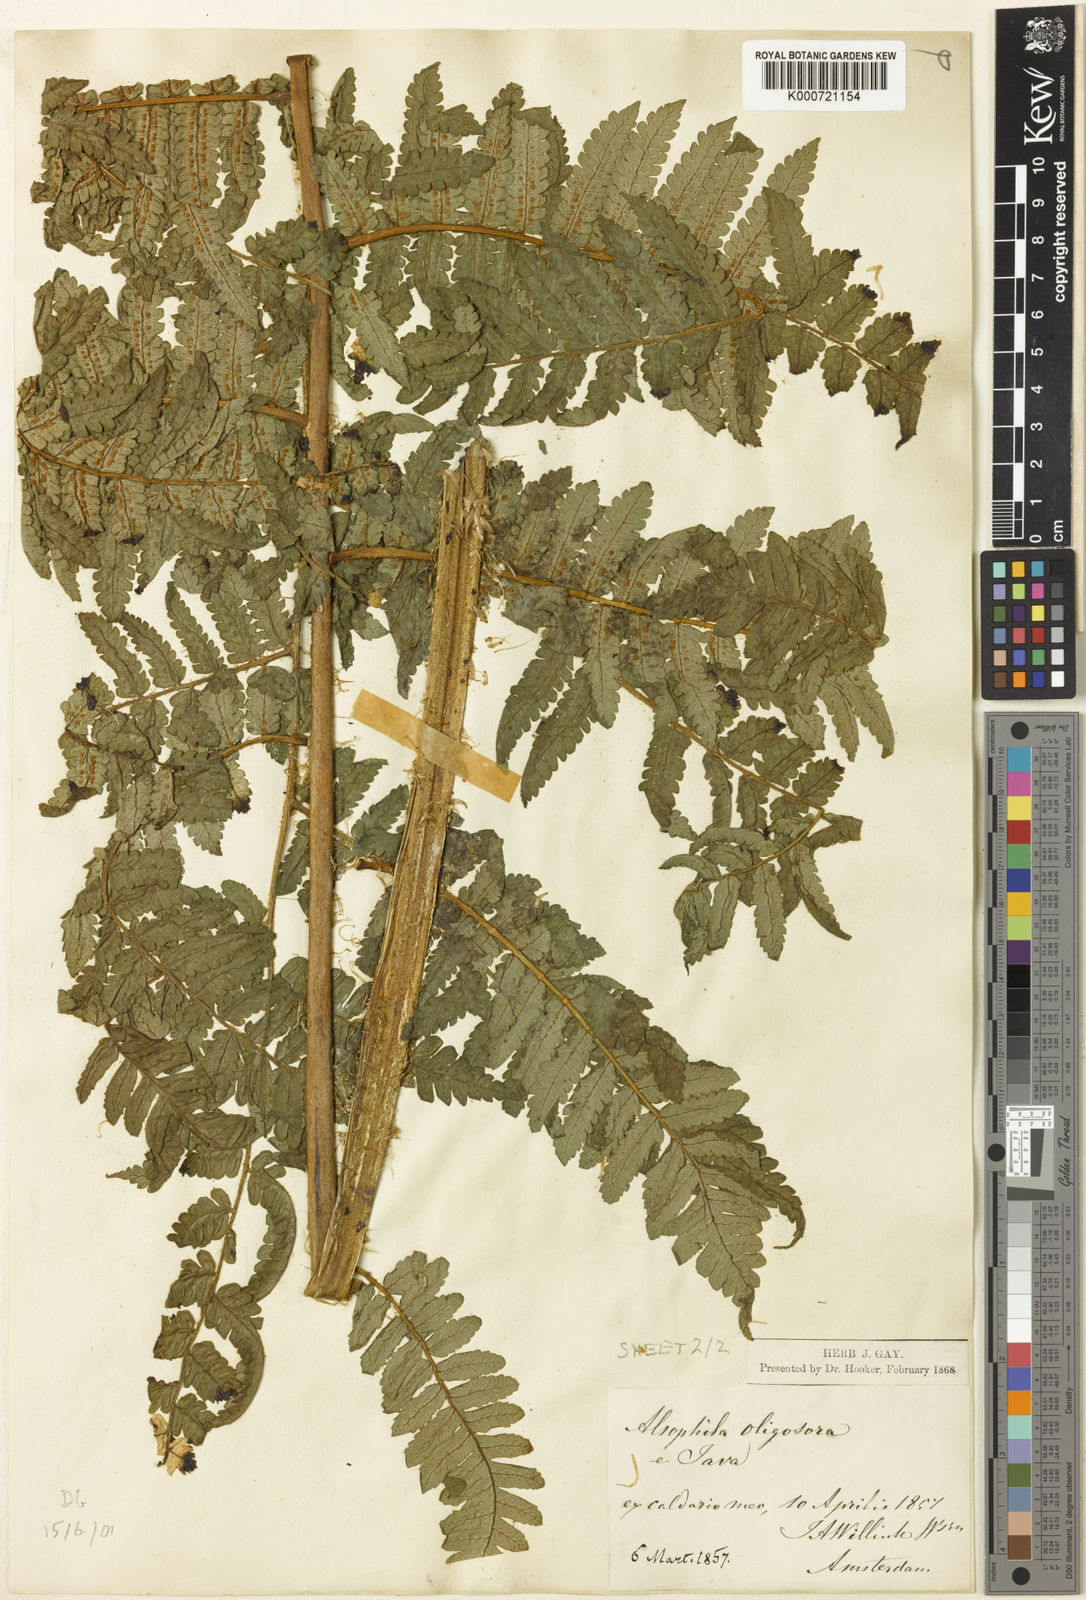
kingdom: Plantae
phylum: Tracheophyta
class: Polypodiopsida
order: Cyatheales
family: Cyatheaceae
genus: Cyathea
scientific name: Cyathea
